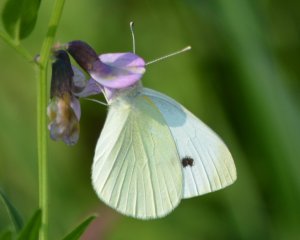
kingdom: Animalia
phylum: Arthropoda
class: Insecta
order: Lepidoptera
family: Pieridae
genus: Pieris
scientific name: Pieris rapae
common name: Cabbage White
